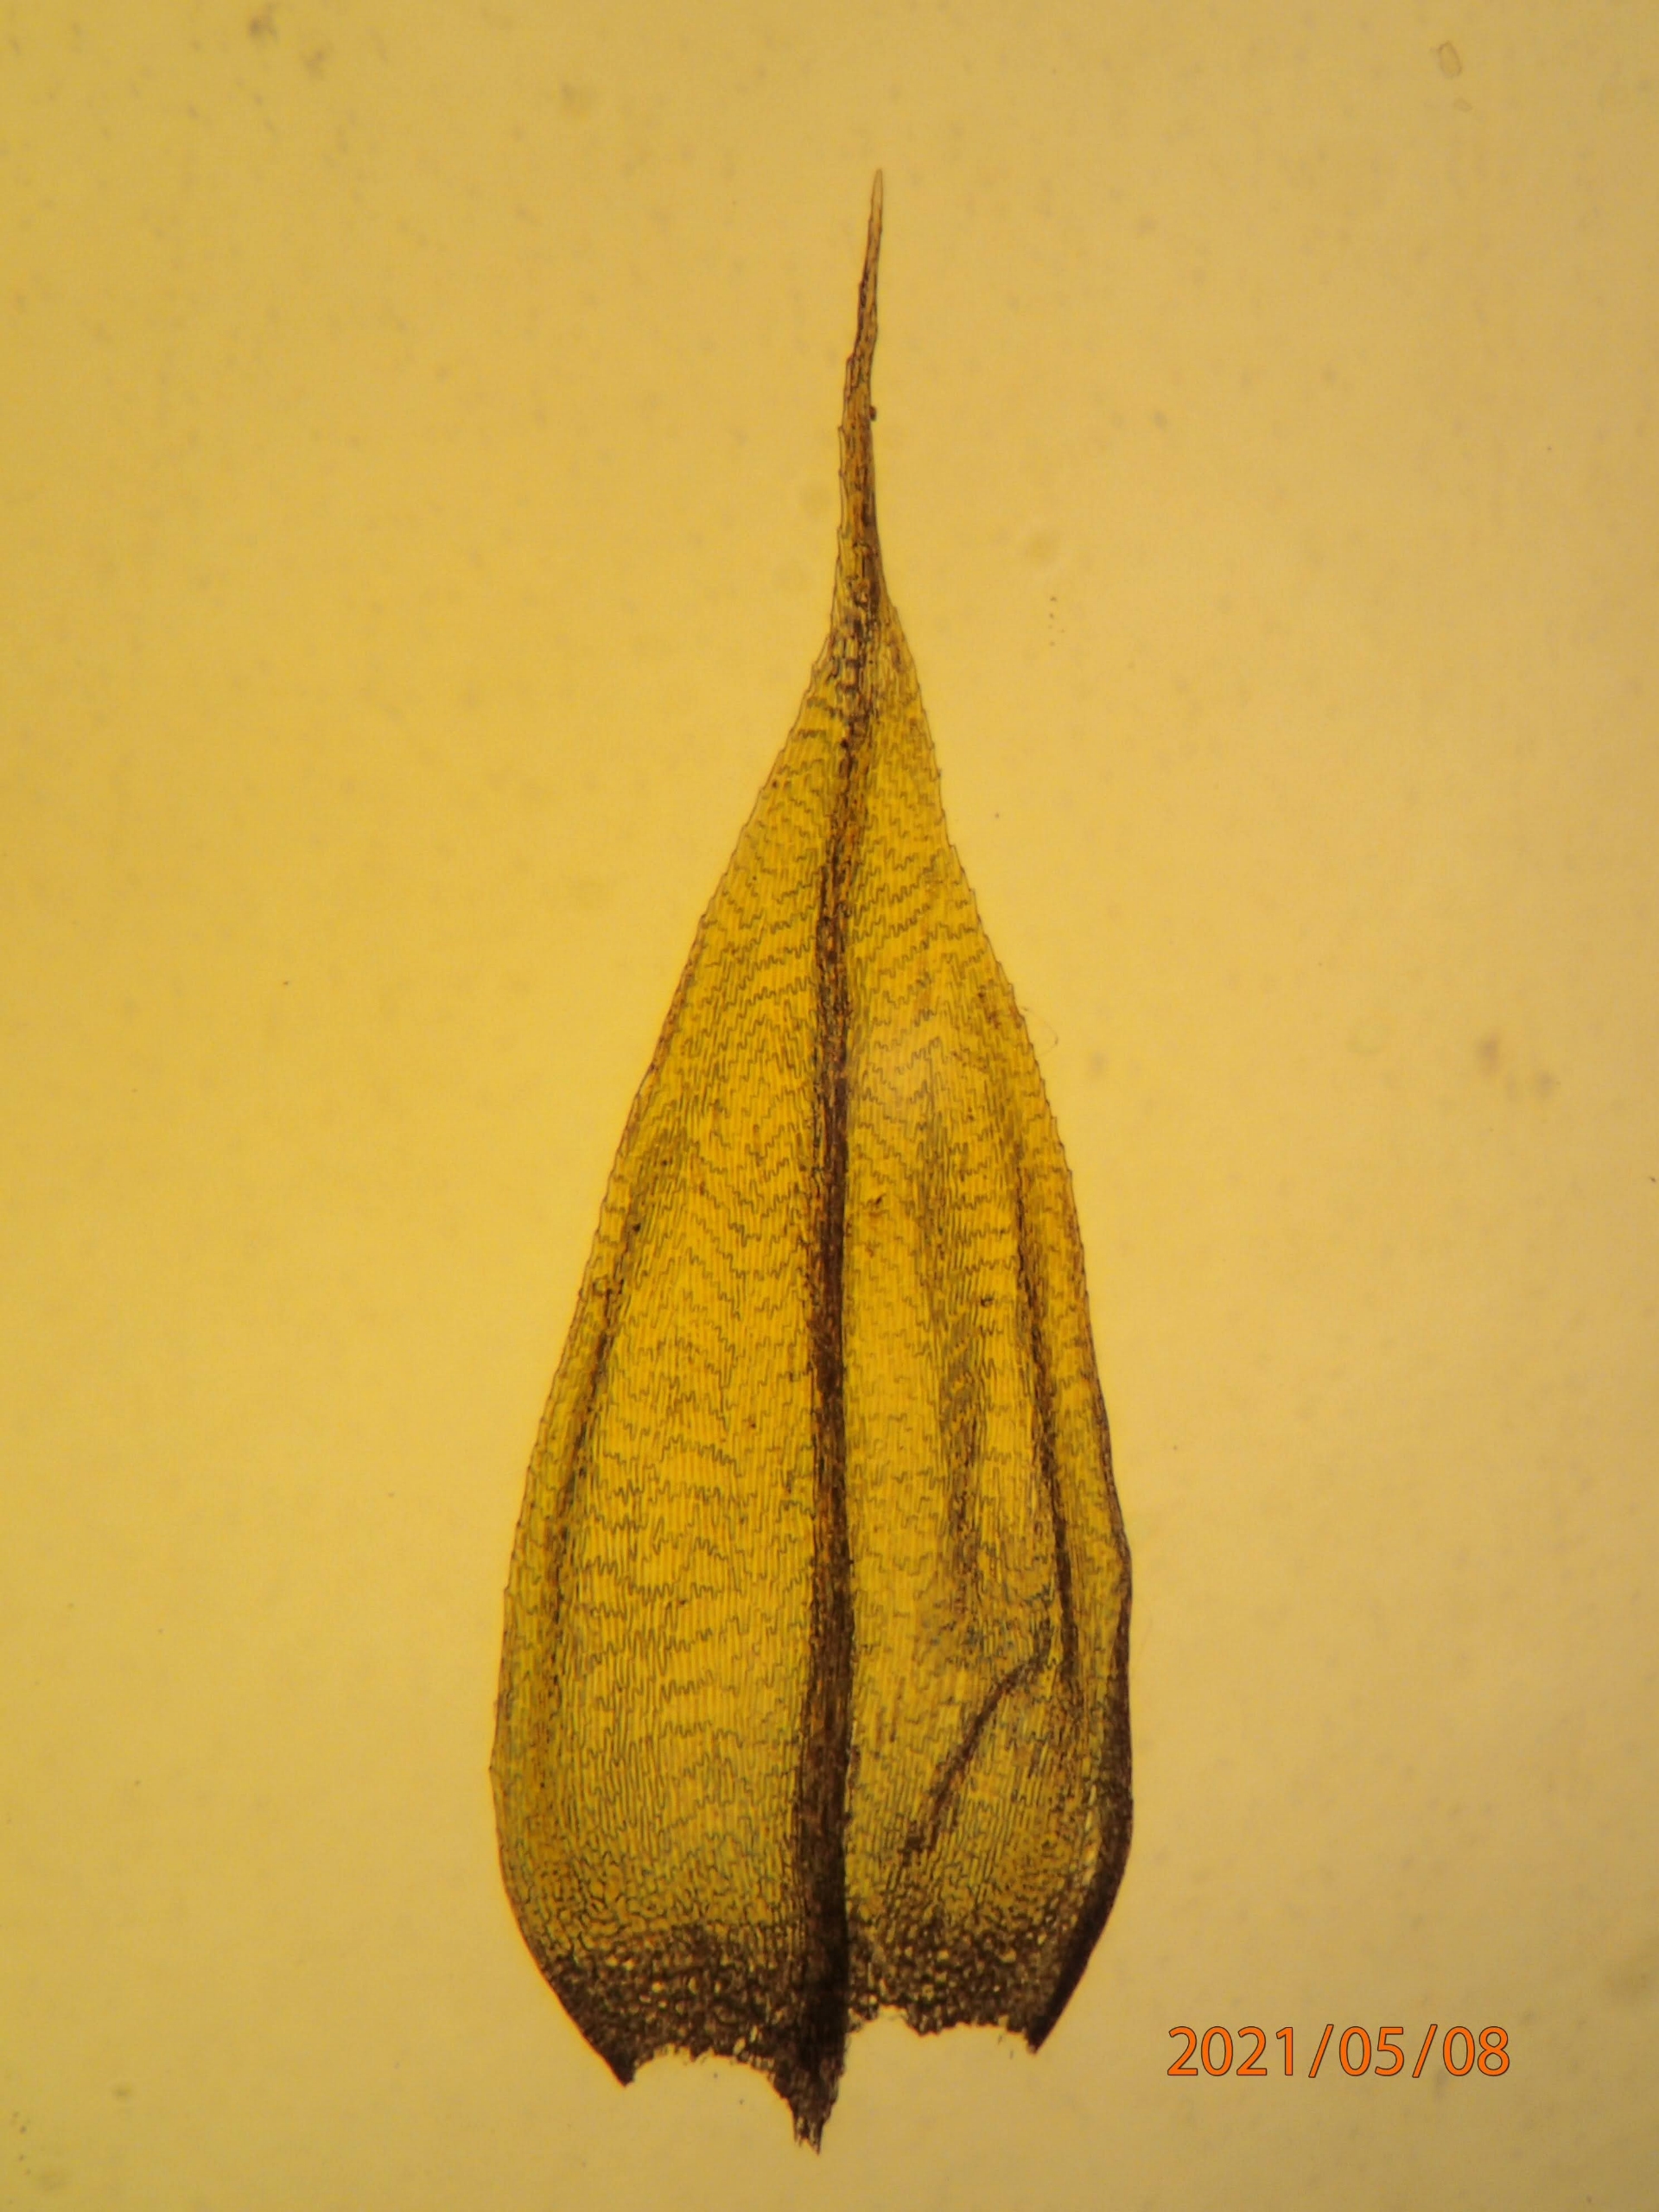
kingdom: Plantae
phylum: Bryophyta
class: Bryopsida
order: Hypnales
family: Brachytheciaceae
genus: Sciuro-hypnum
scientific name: Sciuro-hypnum populeum
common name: Park-kortkapsel
